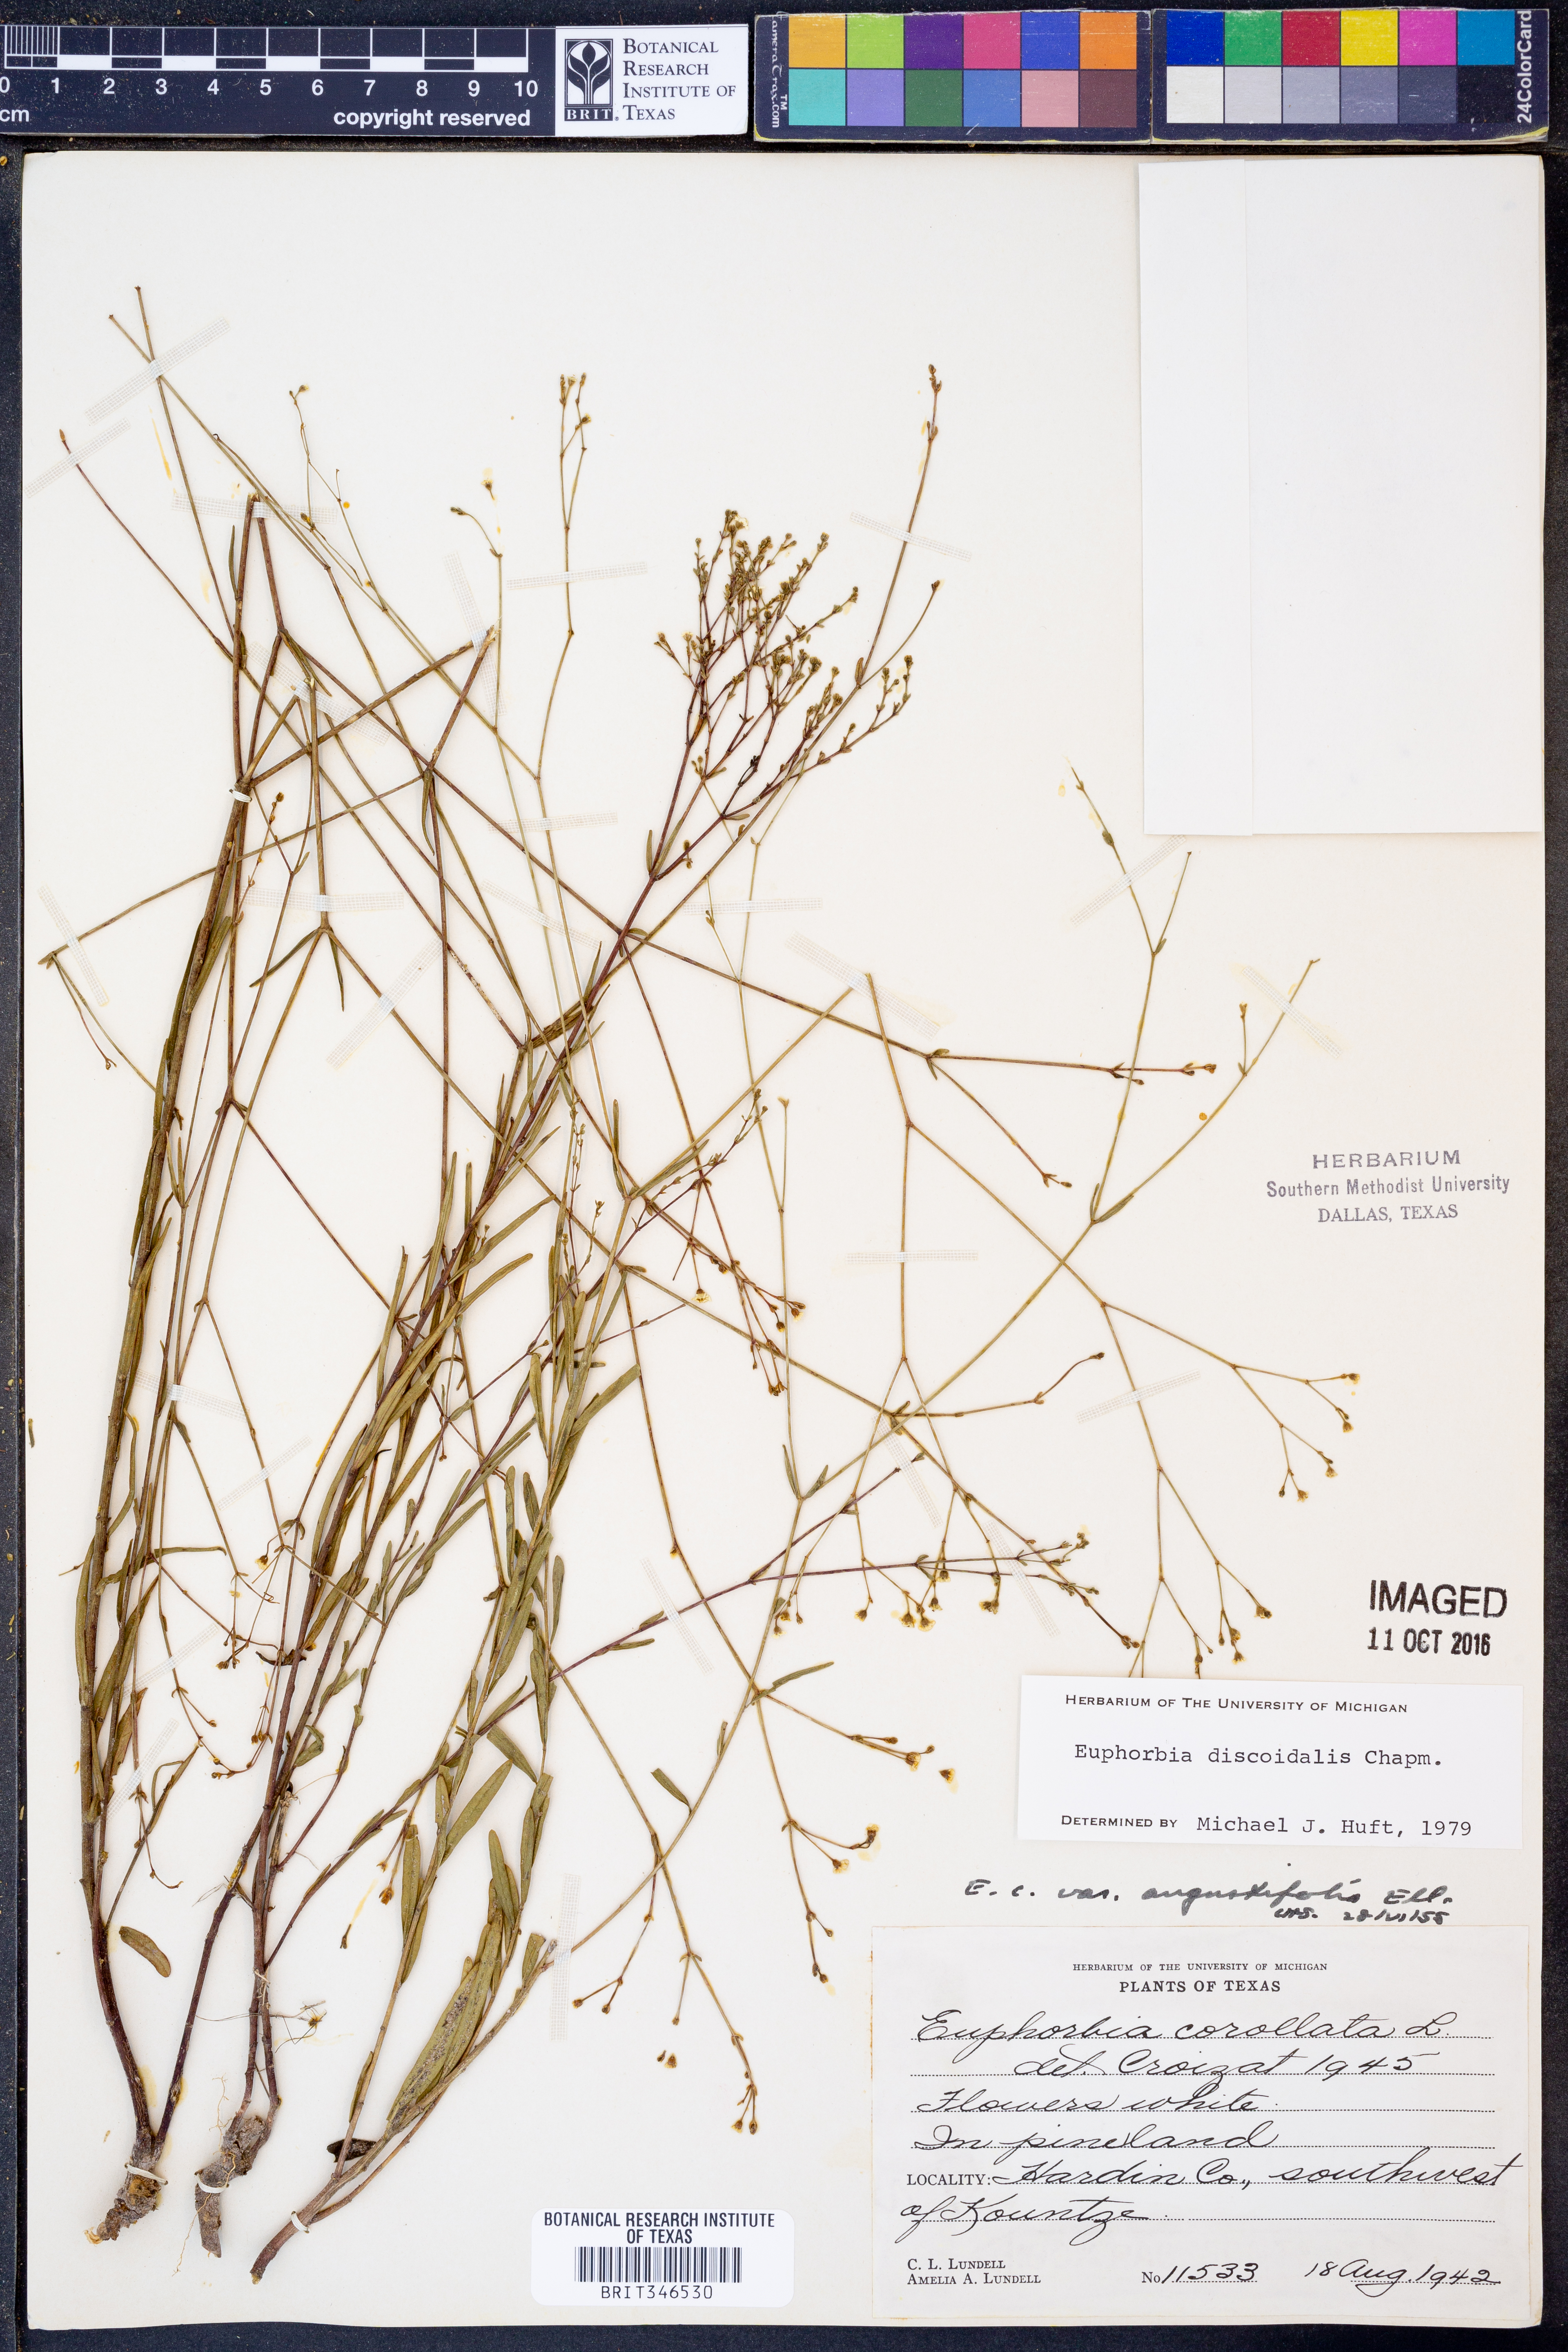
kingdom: Plantae
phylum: Tracheophyta
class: Magnoliopsida
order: Malpighiales
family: Euphorbiaceae
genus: Euphorbia
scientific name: Euphorbia discoidalis
